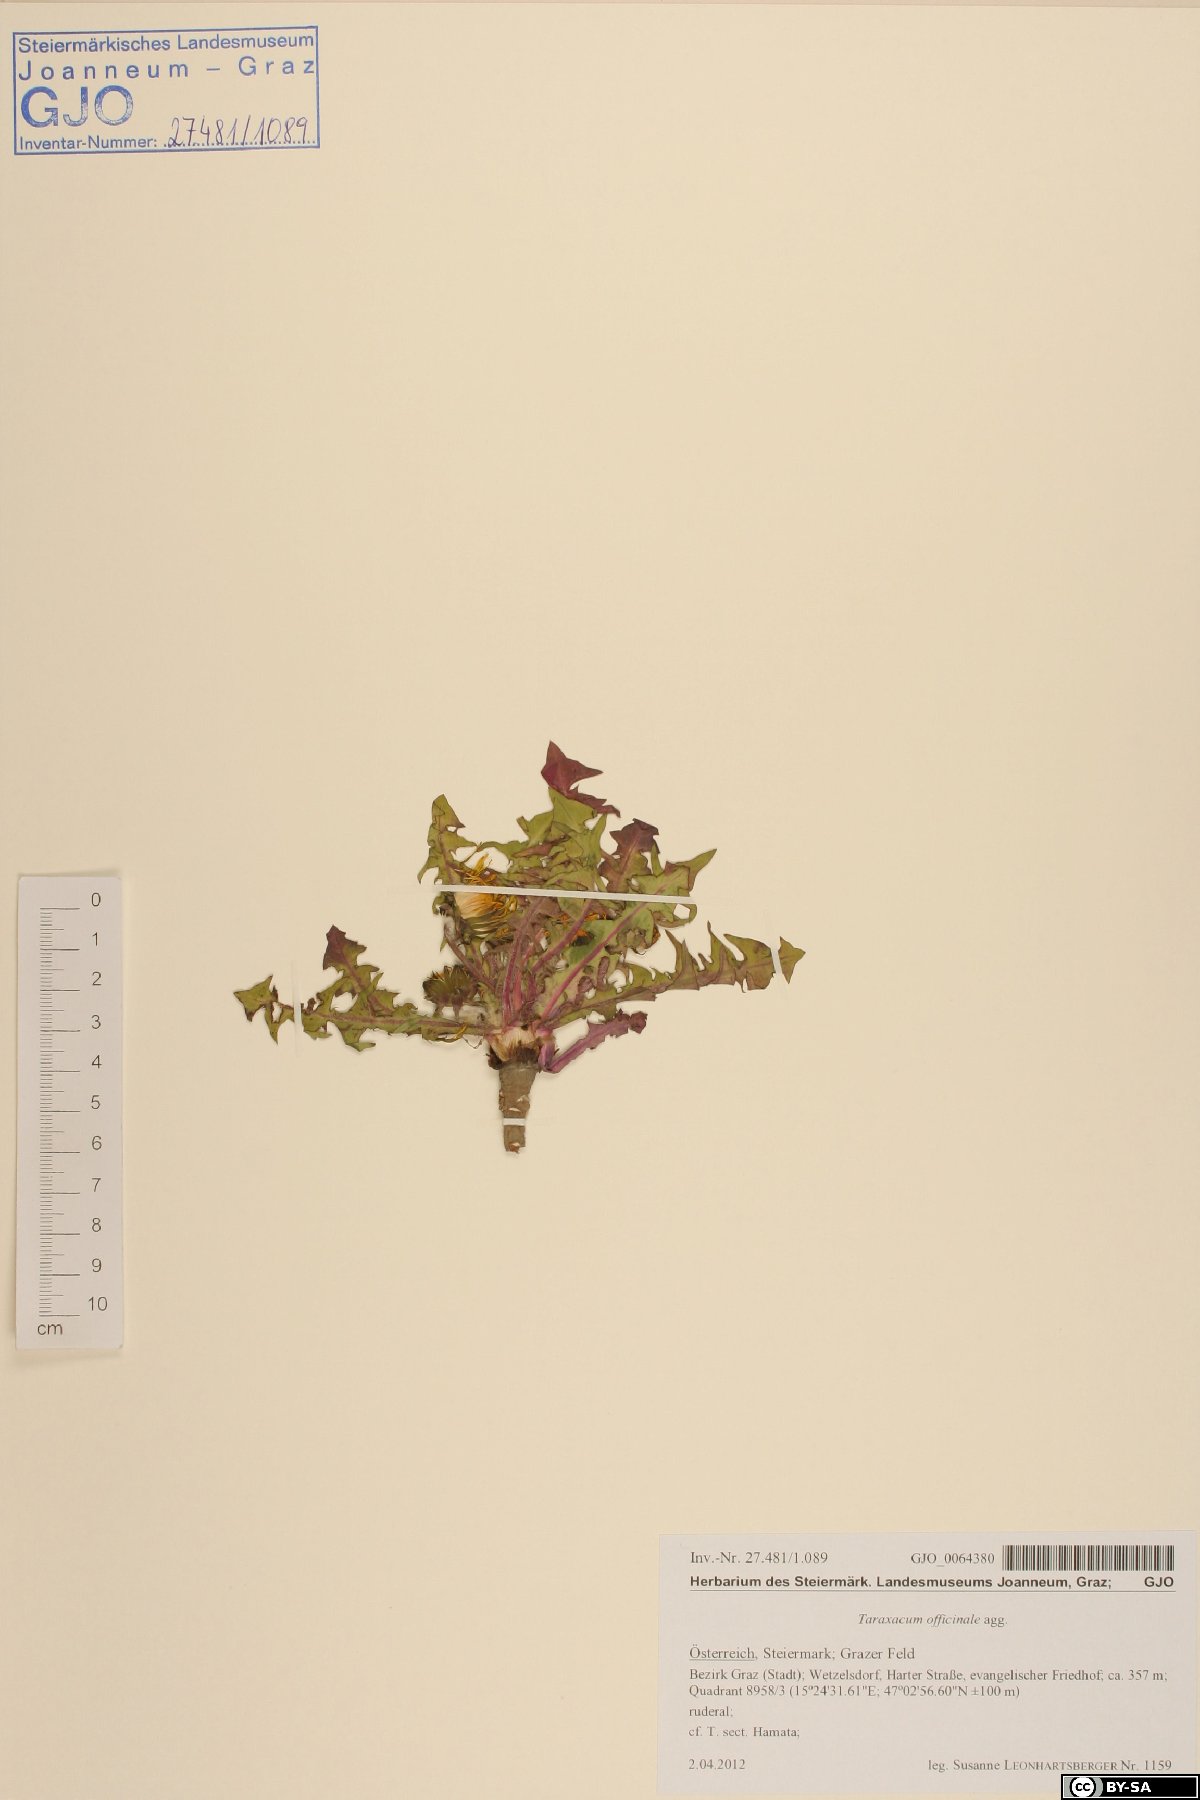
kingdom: Plantae
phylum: Tracheophyta
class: Magnoliopsida
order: Asterales
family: Asteraceae
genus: Taraxacum
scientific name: Taraxacum officinale
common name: Common dandelion
